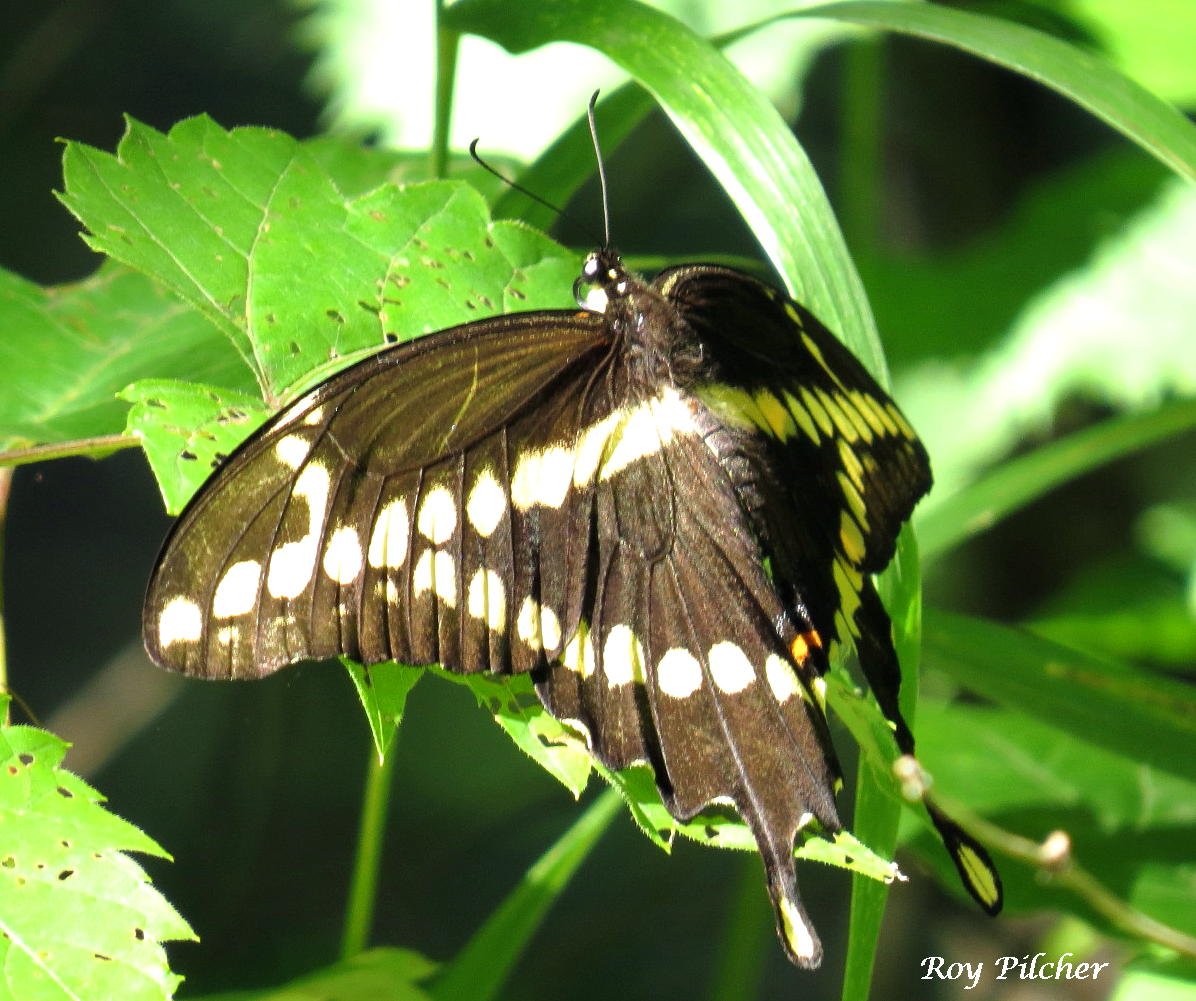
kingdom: Animalia
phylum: Arthropoda
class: Insecta
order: Lepidoptera
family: Papilionidae
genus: Papilio
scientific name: Papilio cresphontes
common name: Eastern Giant Swallowtail
